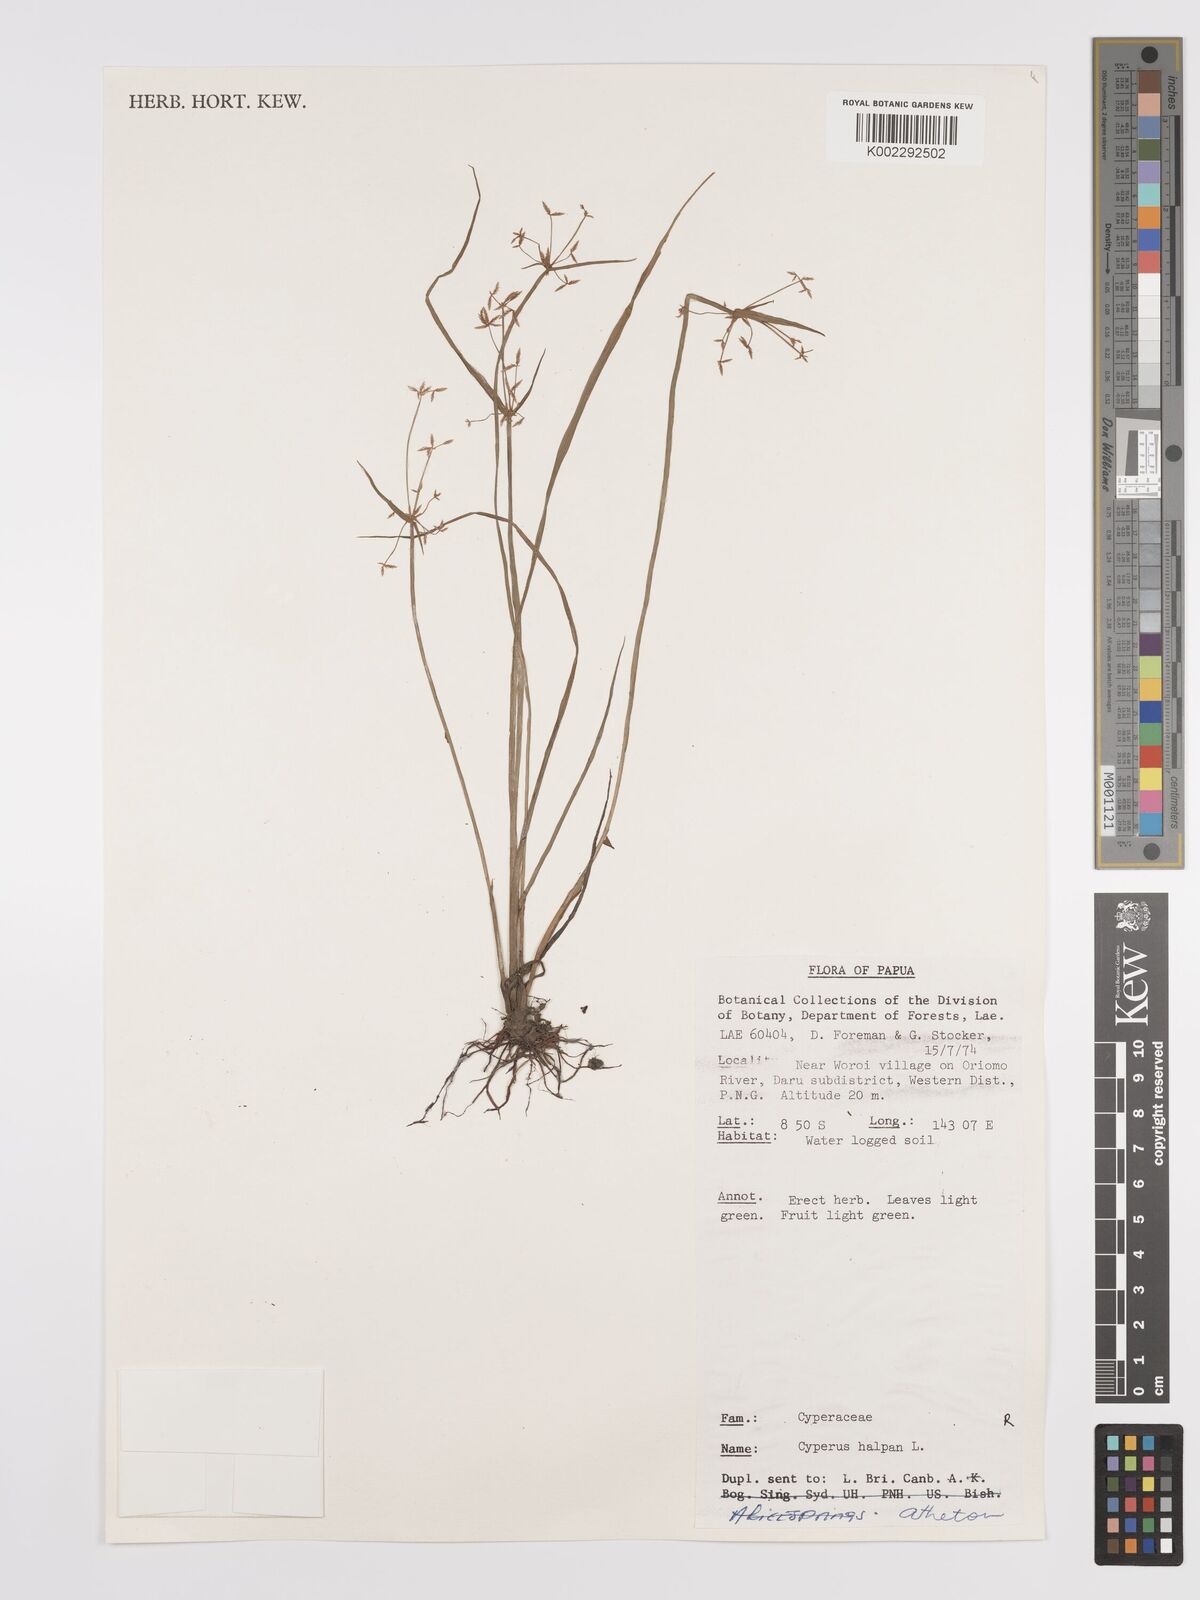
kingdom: Plantae
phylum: Tracheophyta
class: Liliopsida
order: Poales
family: Cyperaceae
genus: Cyperus
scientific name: Cyperus haspan
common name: Haspan flatsedge
